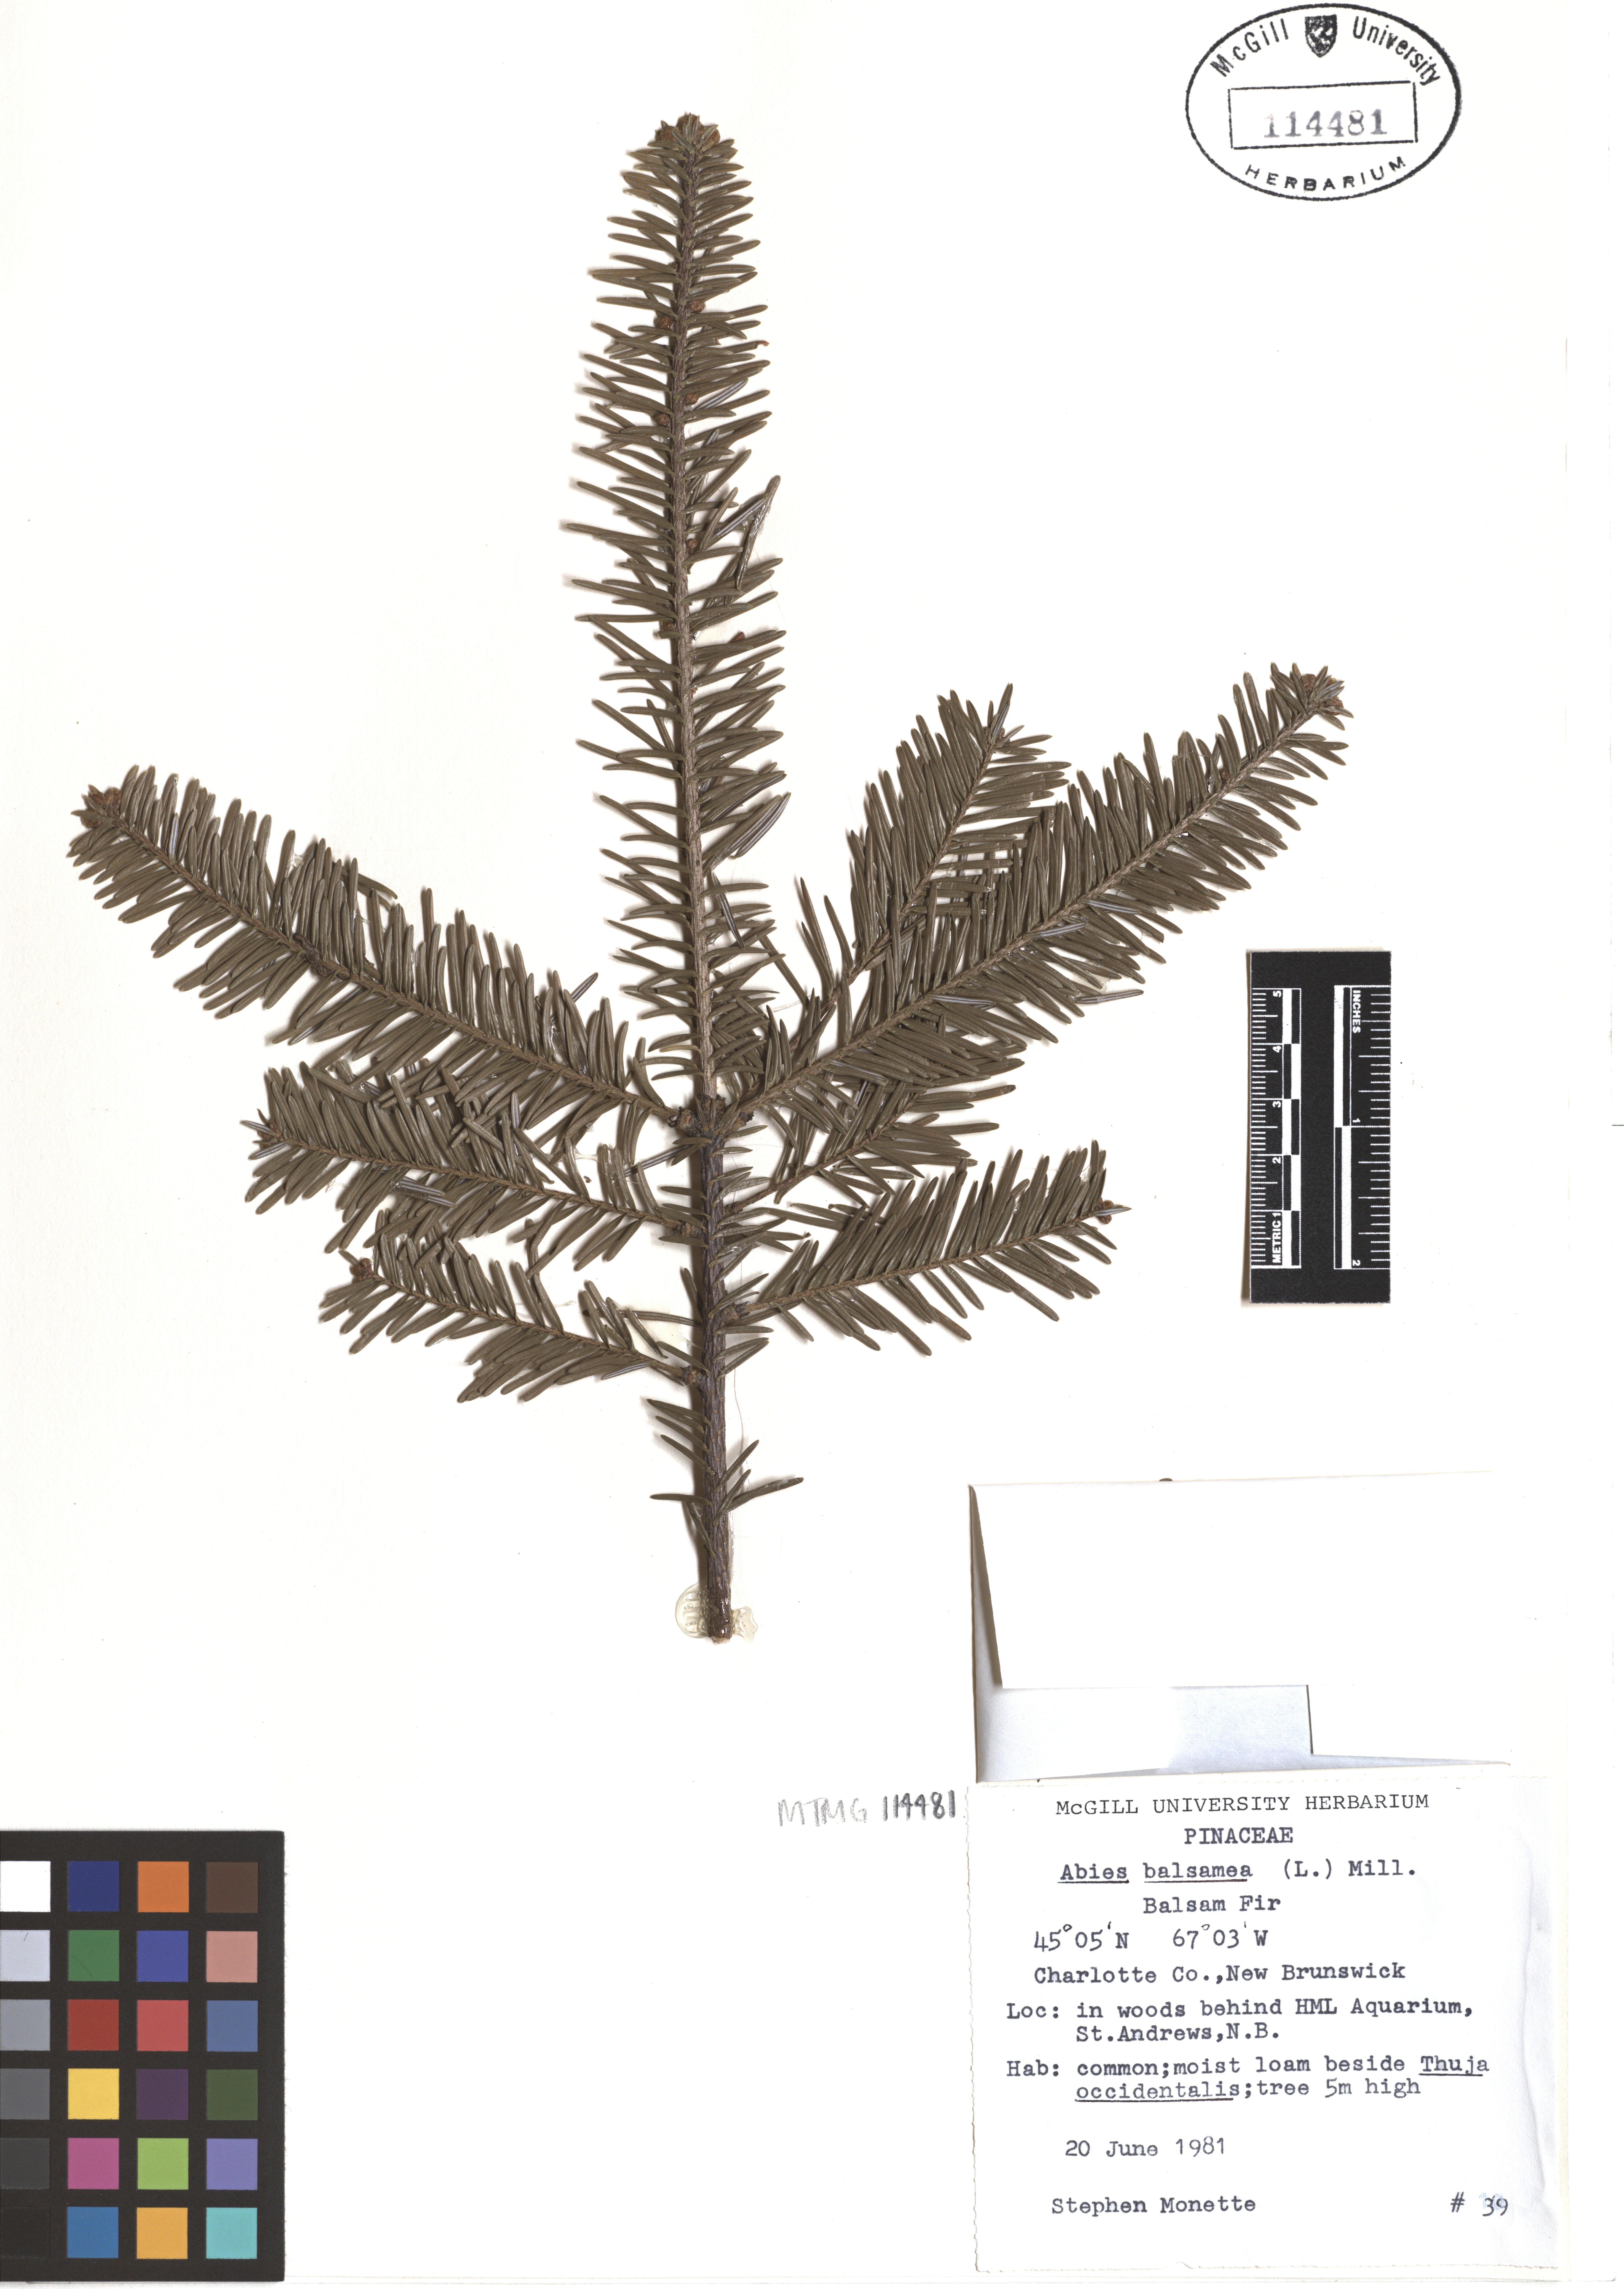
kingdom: Plantae
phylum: Tracheophyta
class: Pinopsida
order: Pinales
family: Pinaceae
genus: Abies
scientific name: Abies balsamea
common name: Balsam fir
